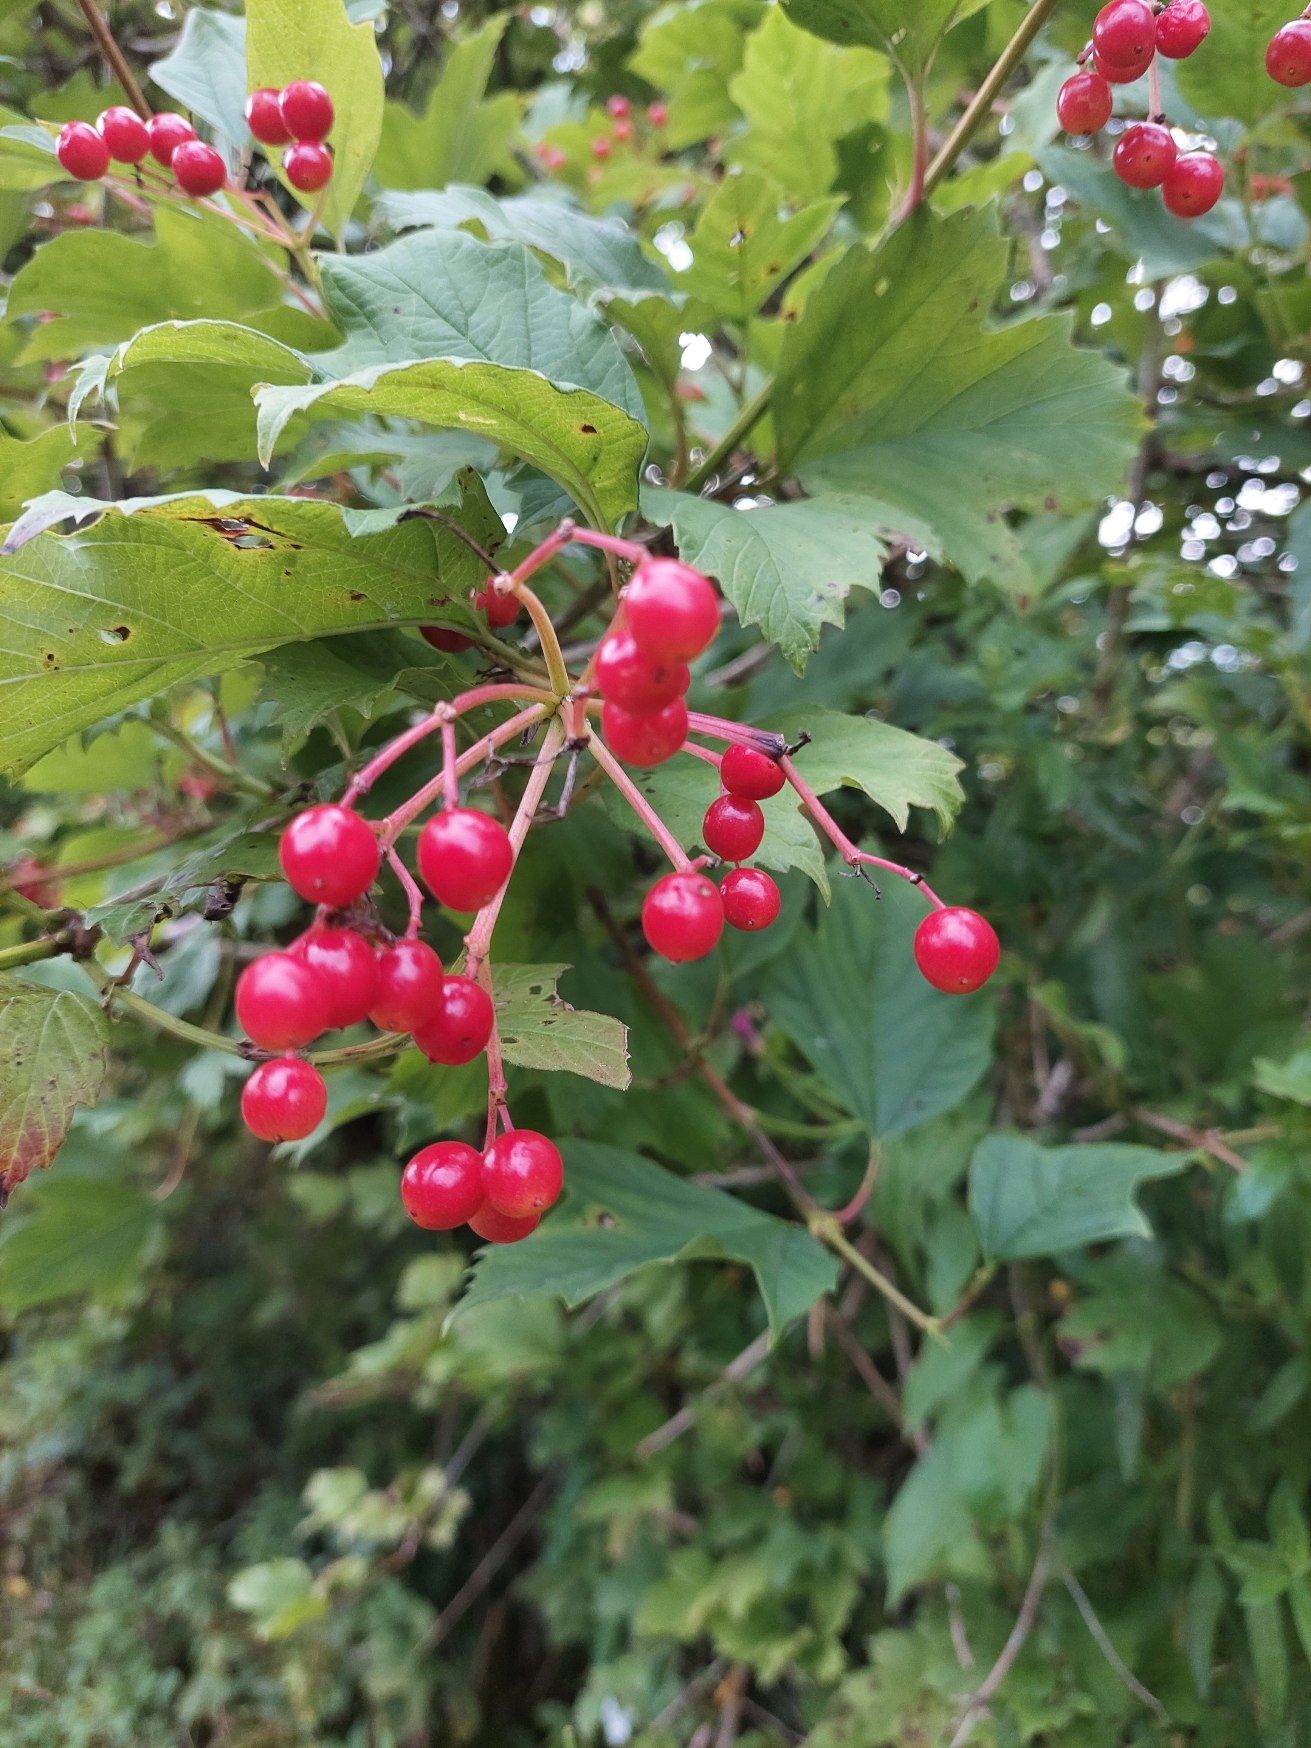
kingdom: Plantae
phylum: Tracheophyta
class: Magnoliopsida
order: Dipsacales
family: Viburnaceae
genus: Viburnum
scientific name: Viburnum opulus
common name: Kvalkved
